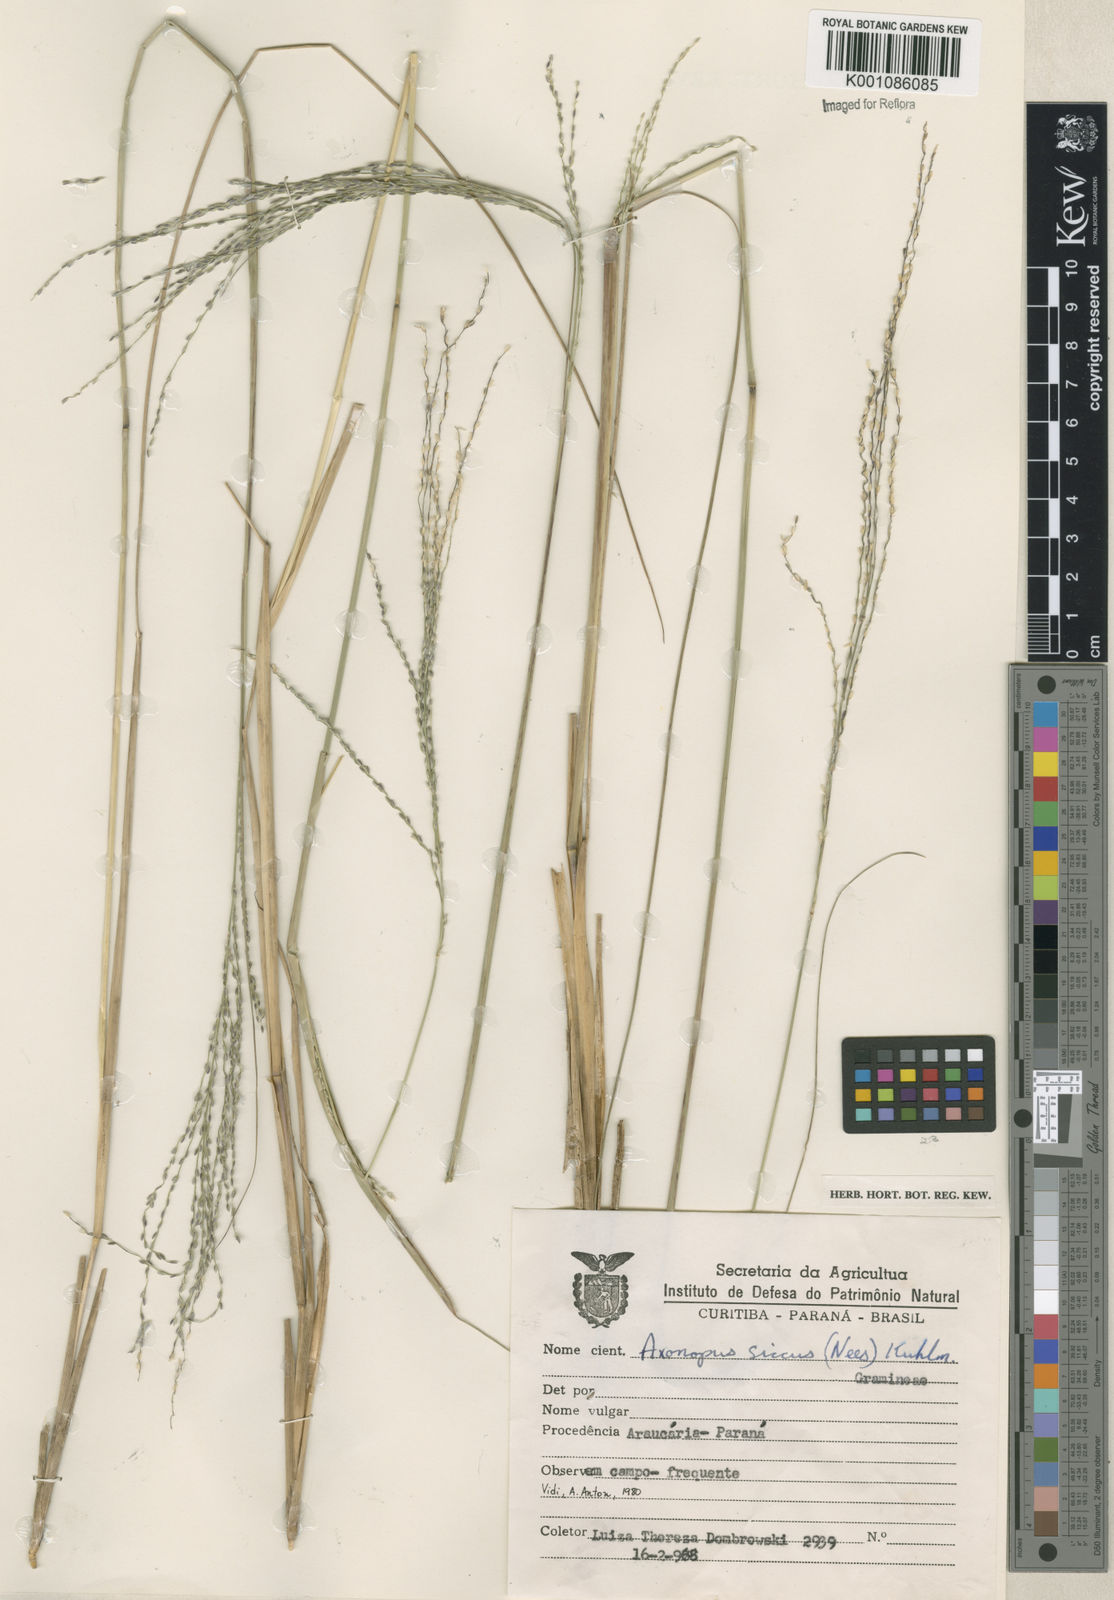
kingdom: Plantae
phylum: Tracheophyta
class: Liliopsida
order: Poales
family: Poaceae
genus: Axonopus
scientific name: Axonopus siccus
